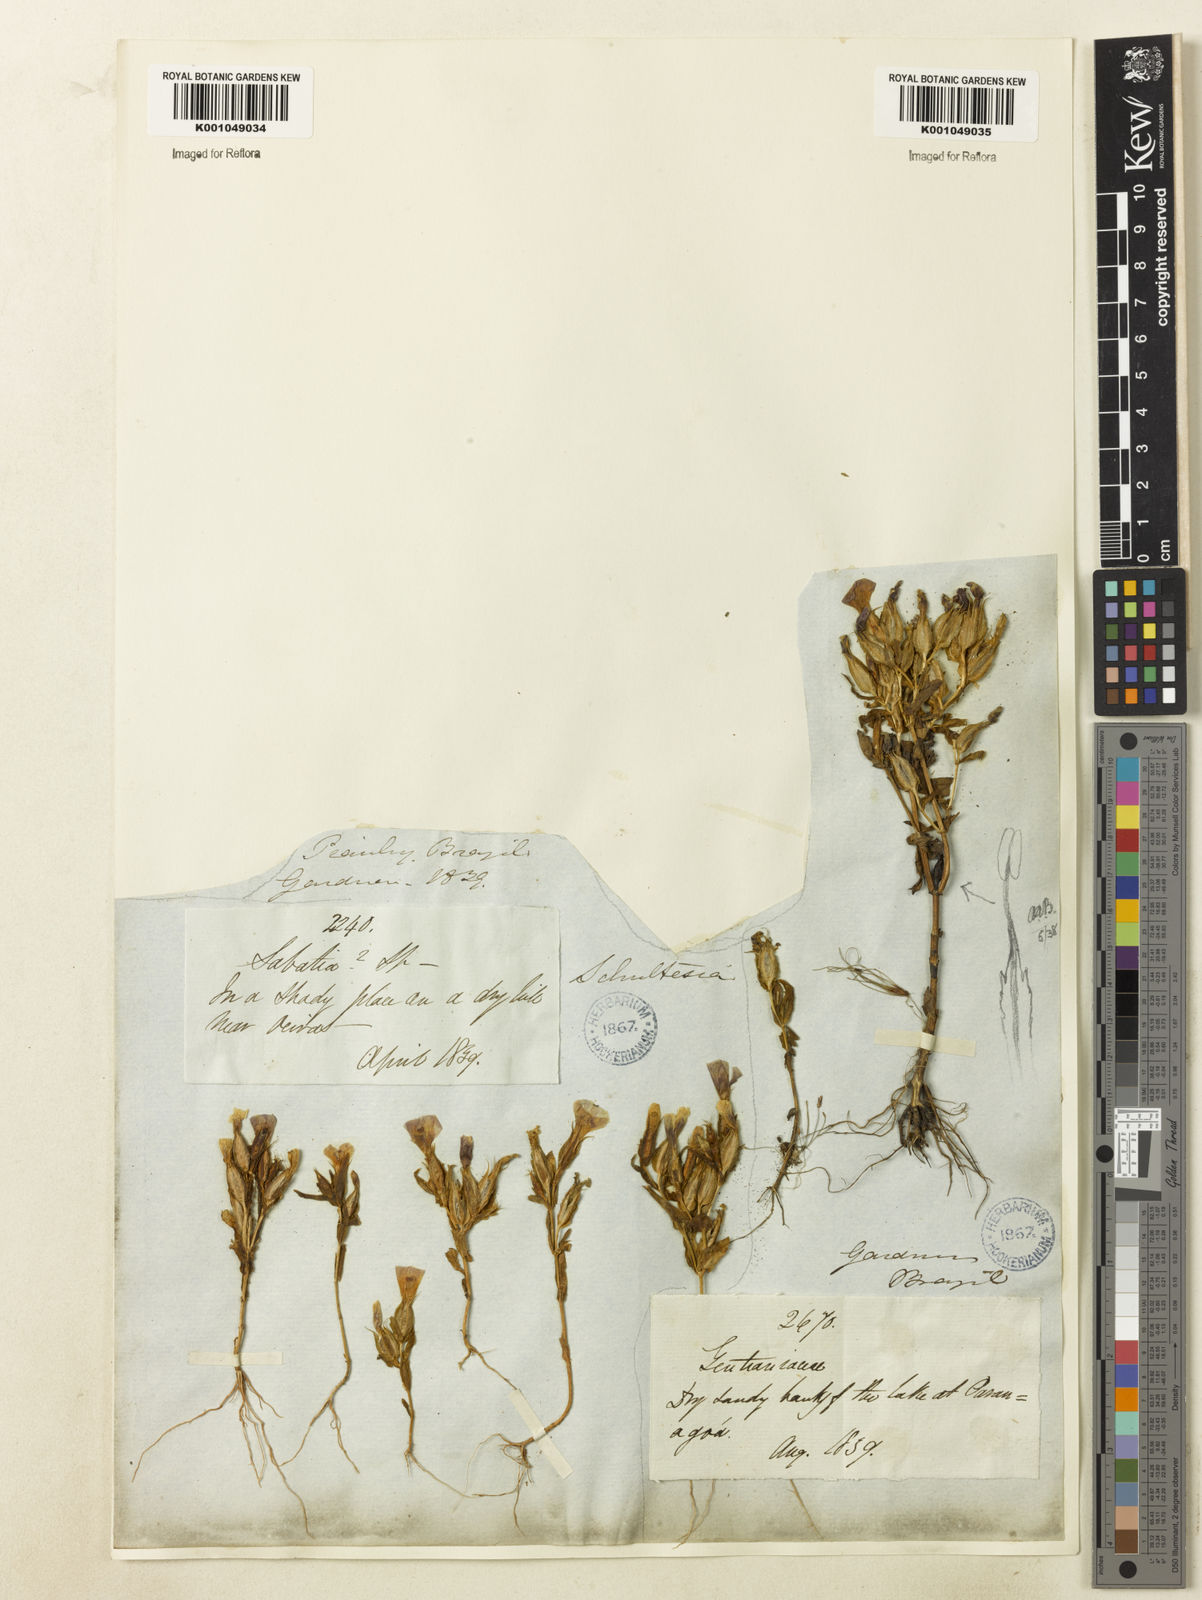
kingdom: Plantae
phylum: Tracheophyta
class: Magnoliopsida
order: Gentianales
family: Gentianaceae
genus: Schultesia
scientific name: Schultesia guianensis
